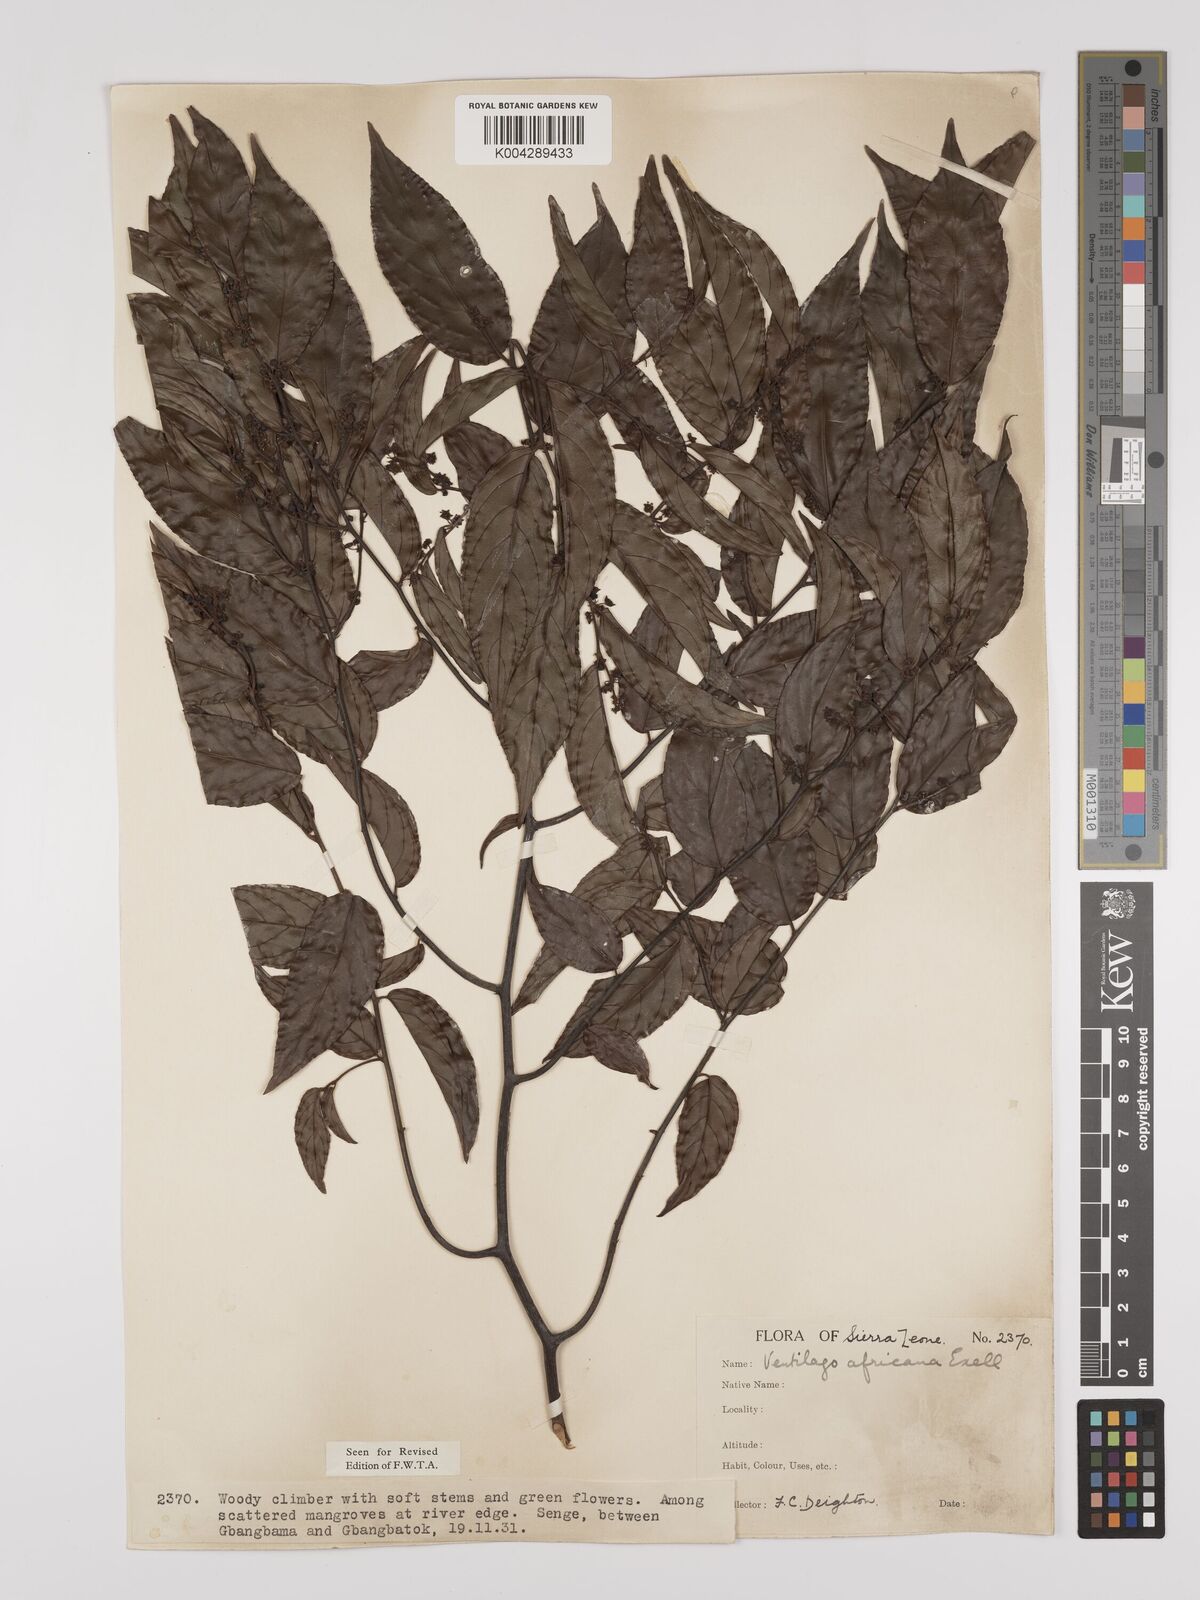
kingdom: Plantae
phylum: Tracheophyta
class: Magnoliopsida
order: Rosales
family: Rhamnaceae
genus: Ventilago
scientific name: Ventilago africana
